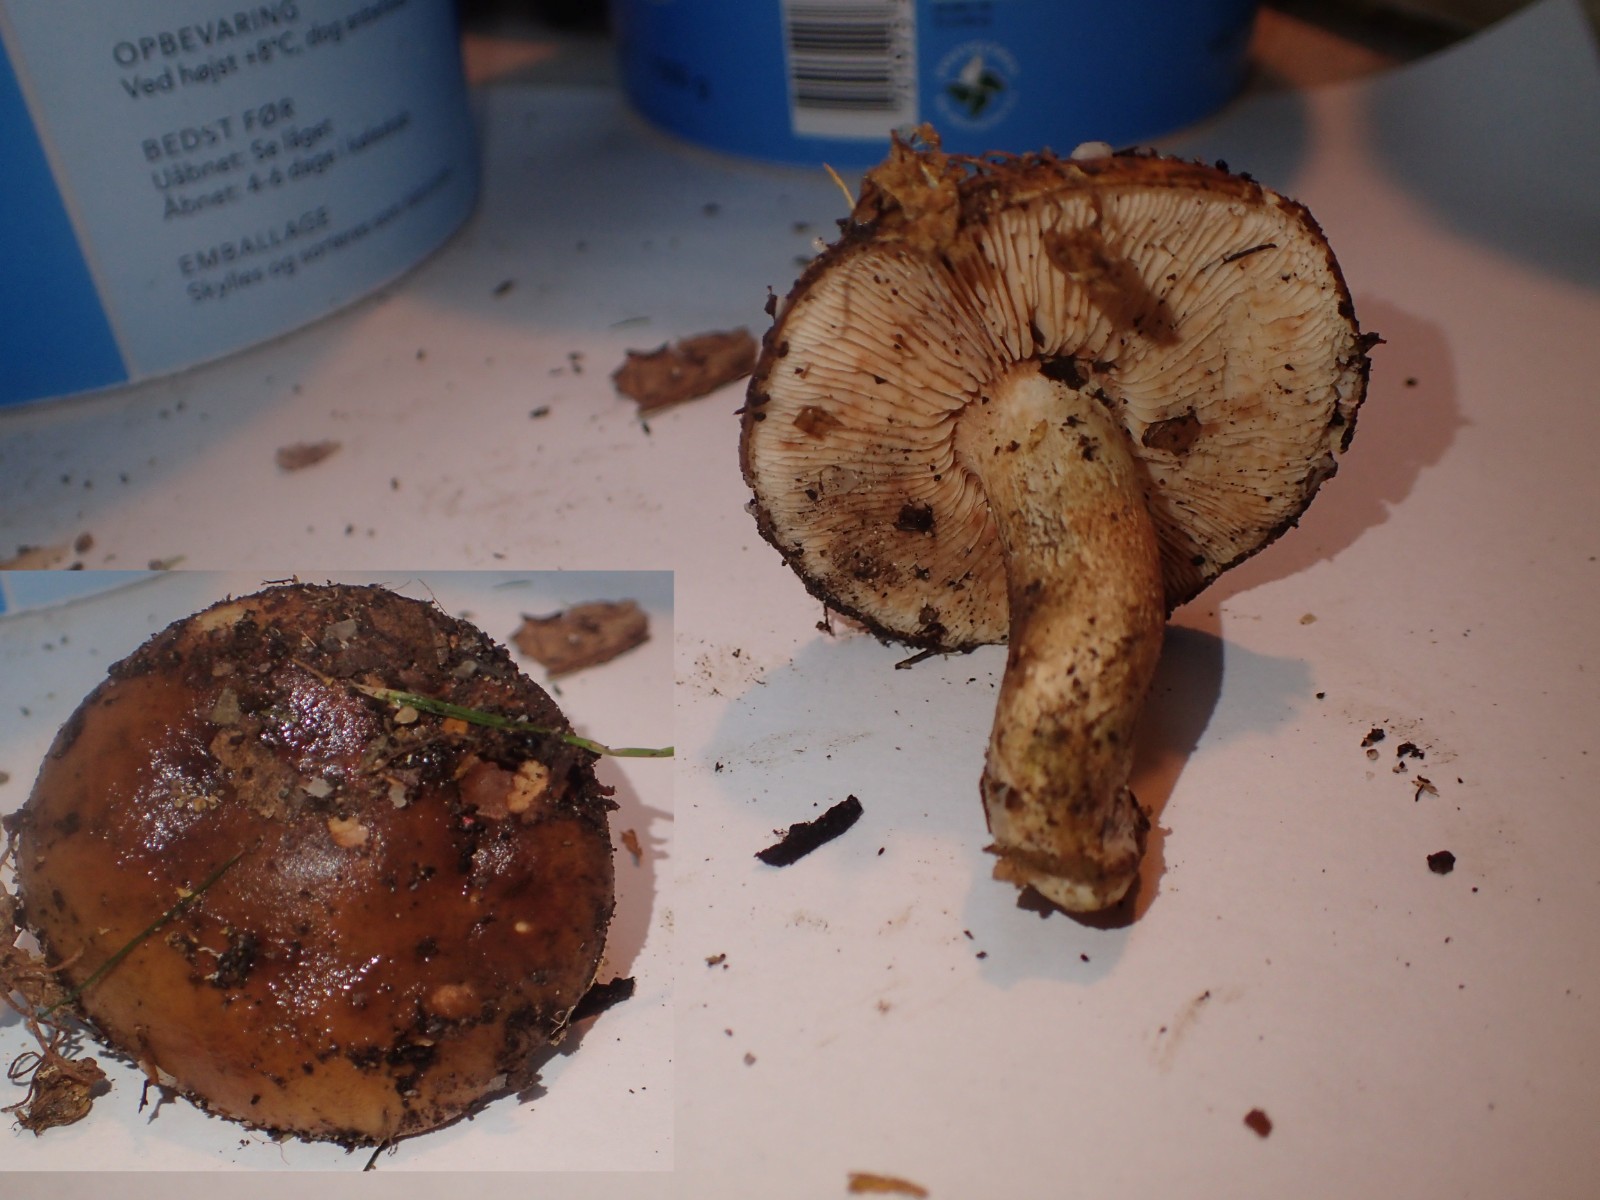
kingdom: Fungi
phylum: Basidiomycota
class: Agaricomycetes
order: Agaricales
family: Tricholomataceae
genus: Tricholoma
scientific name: Tricholoma ustale
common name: sveden ridderhat
